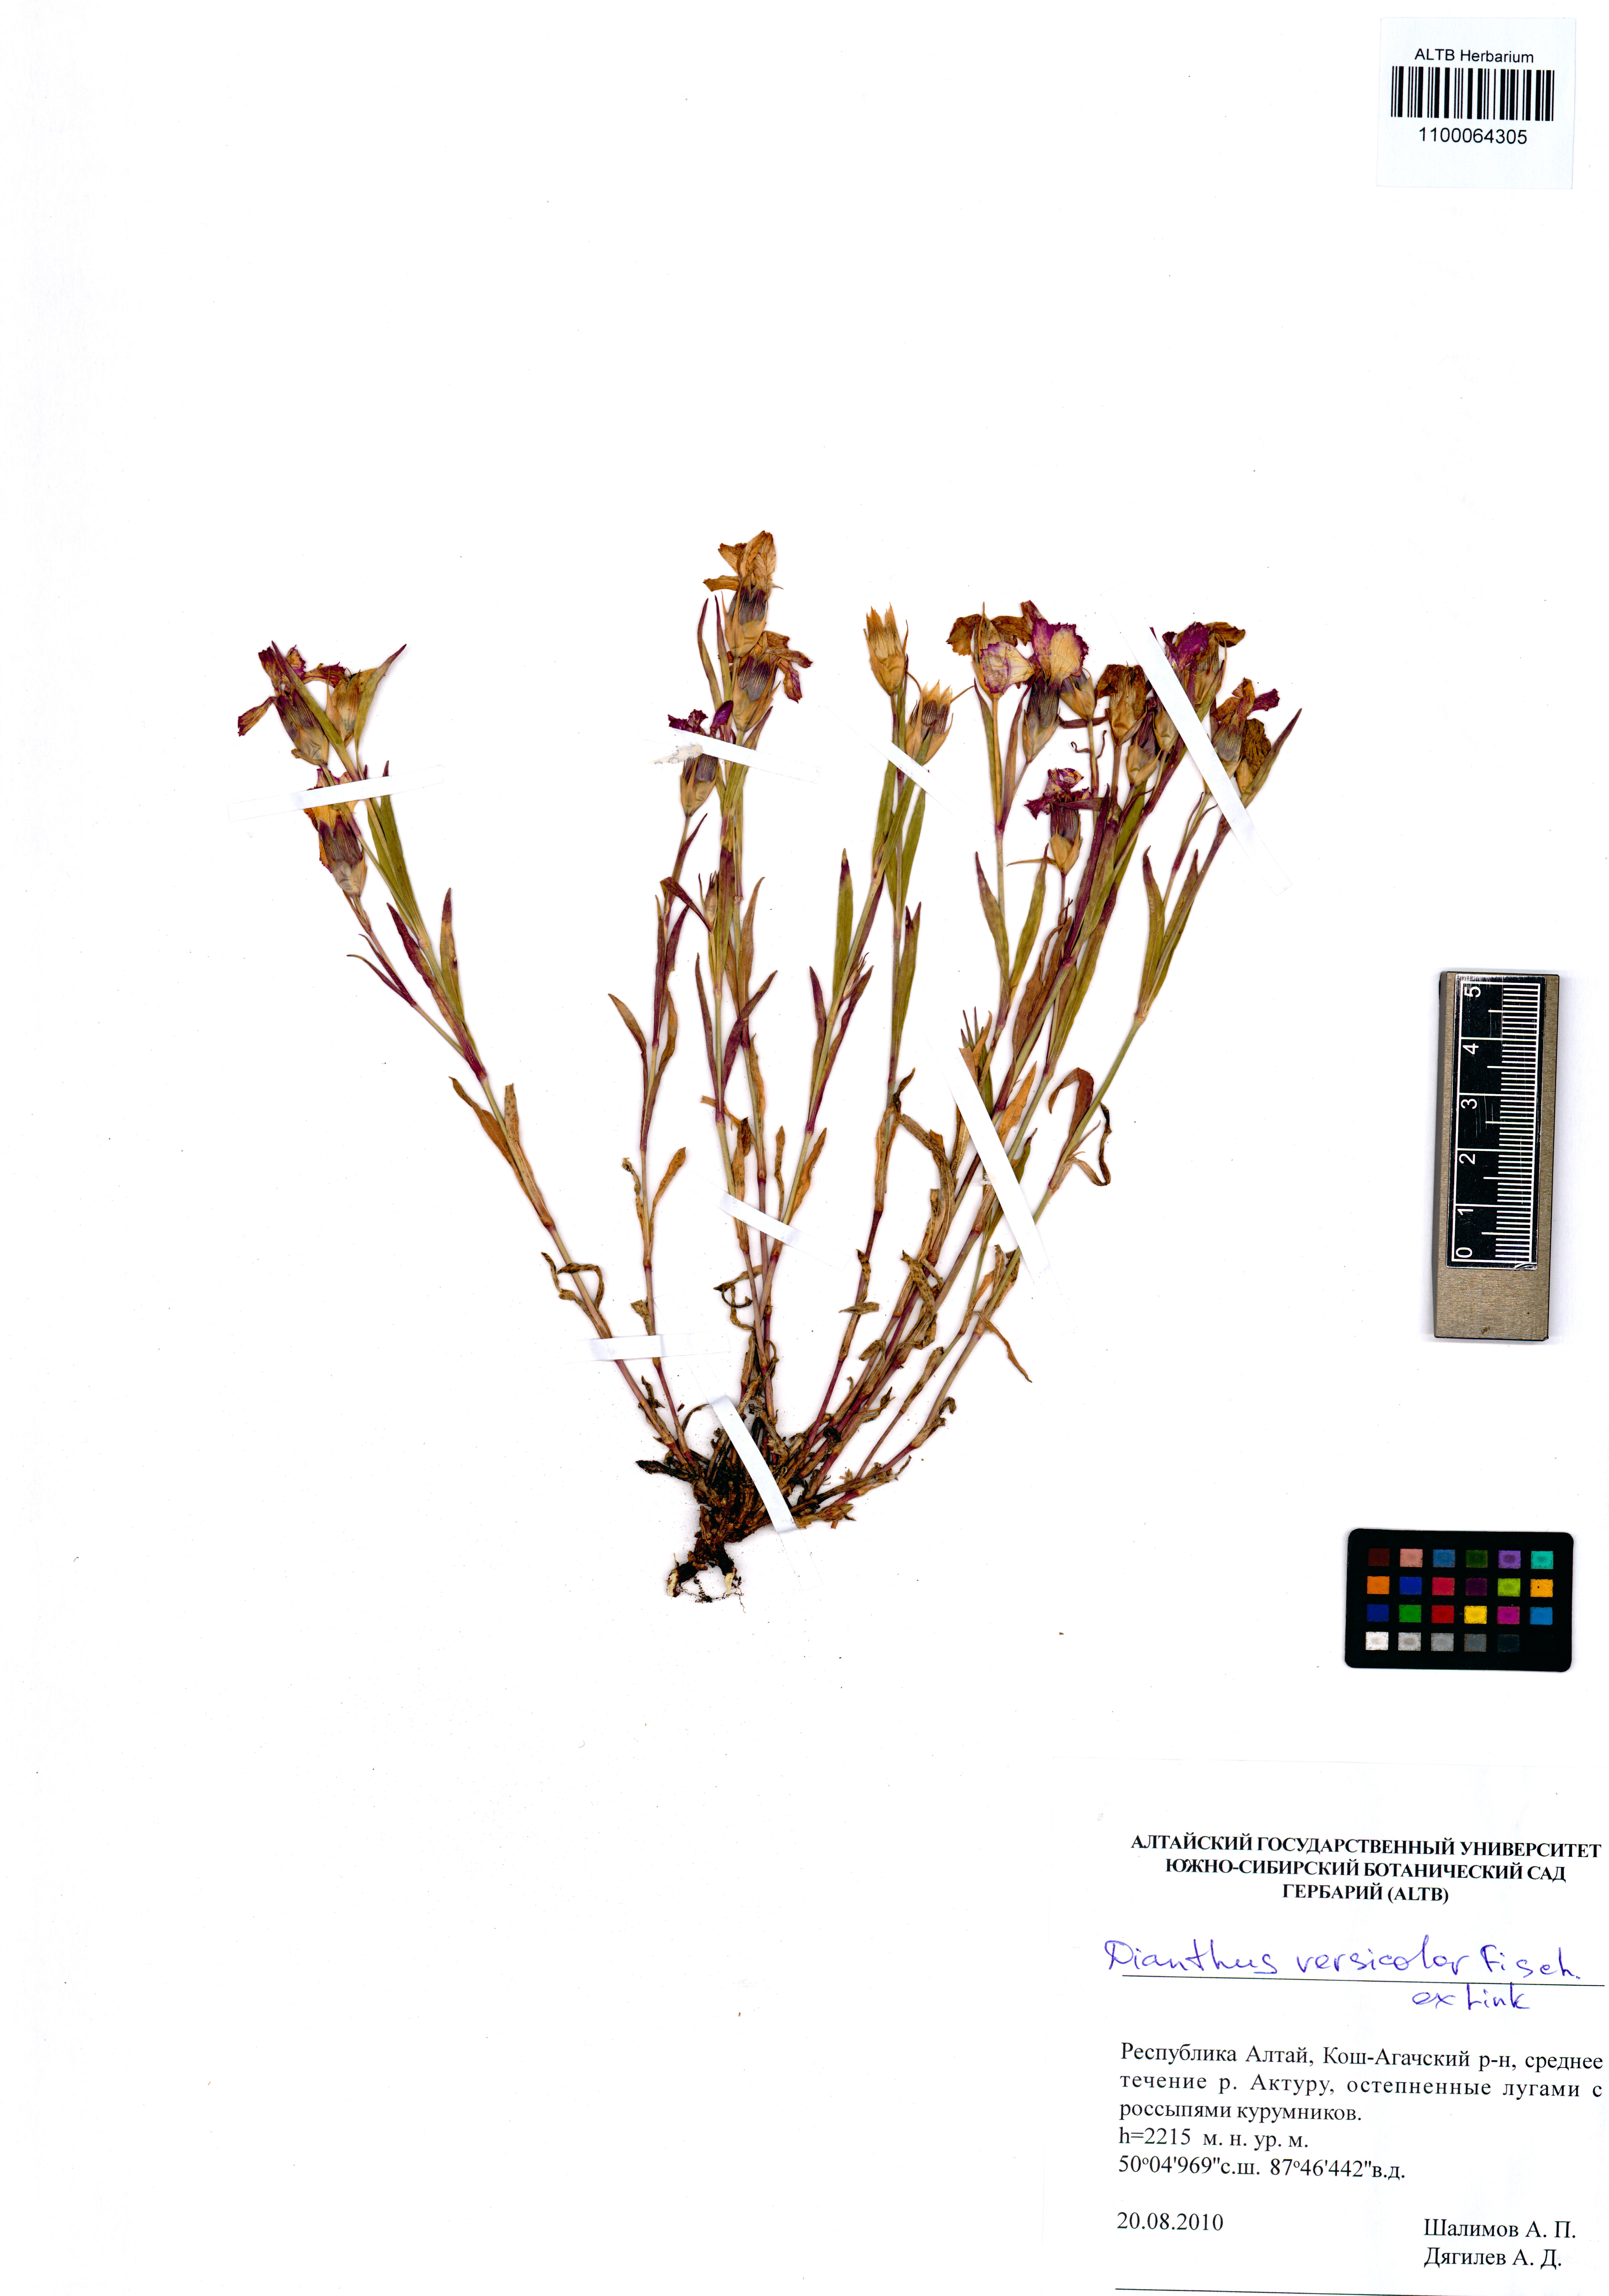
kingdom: Plantae
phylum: Tracheophyta
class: Magnoliopsida
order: Caryophyllales
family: Caryophyllaceae
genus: Dianthus
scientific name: Dianthus chinensis
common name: Rainbow pink
